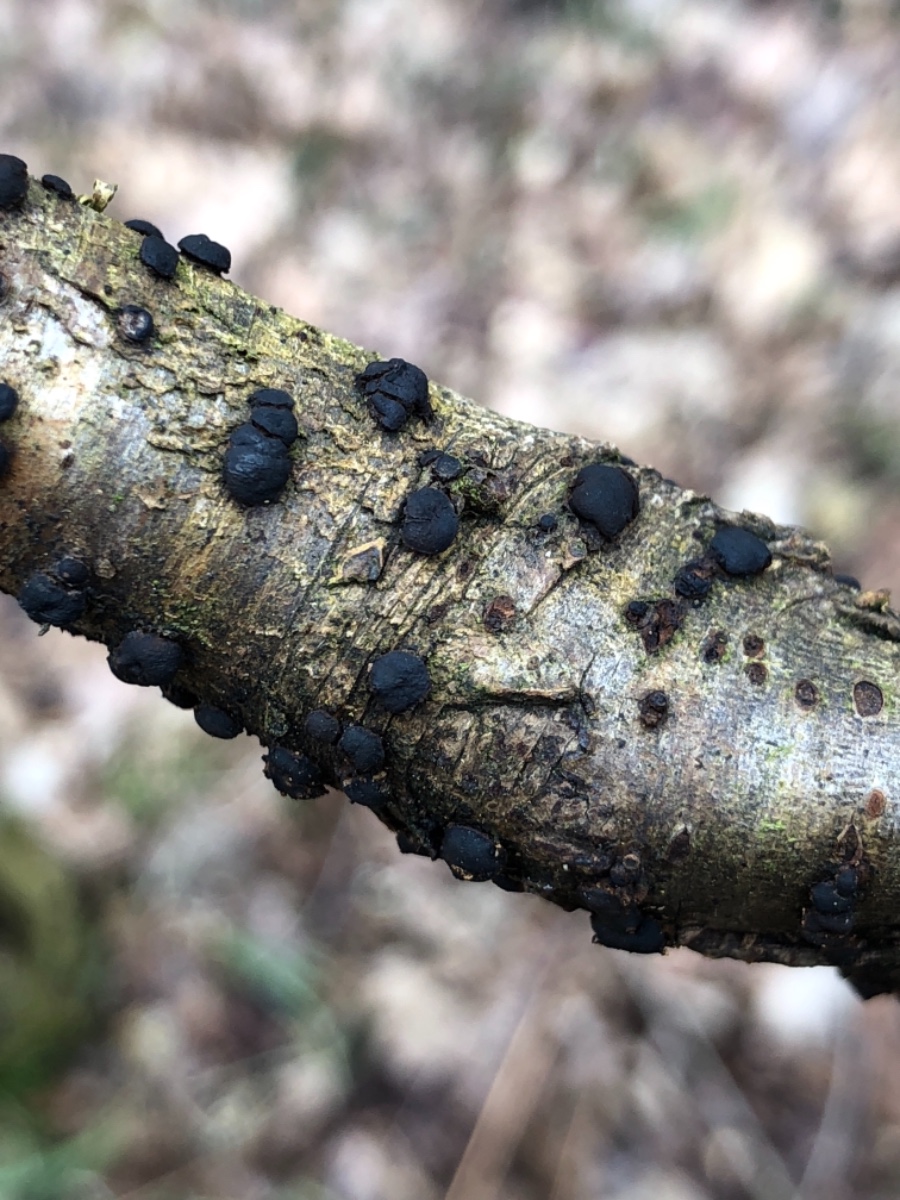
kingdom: Fungi
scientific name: Fungi
